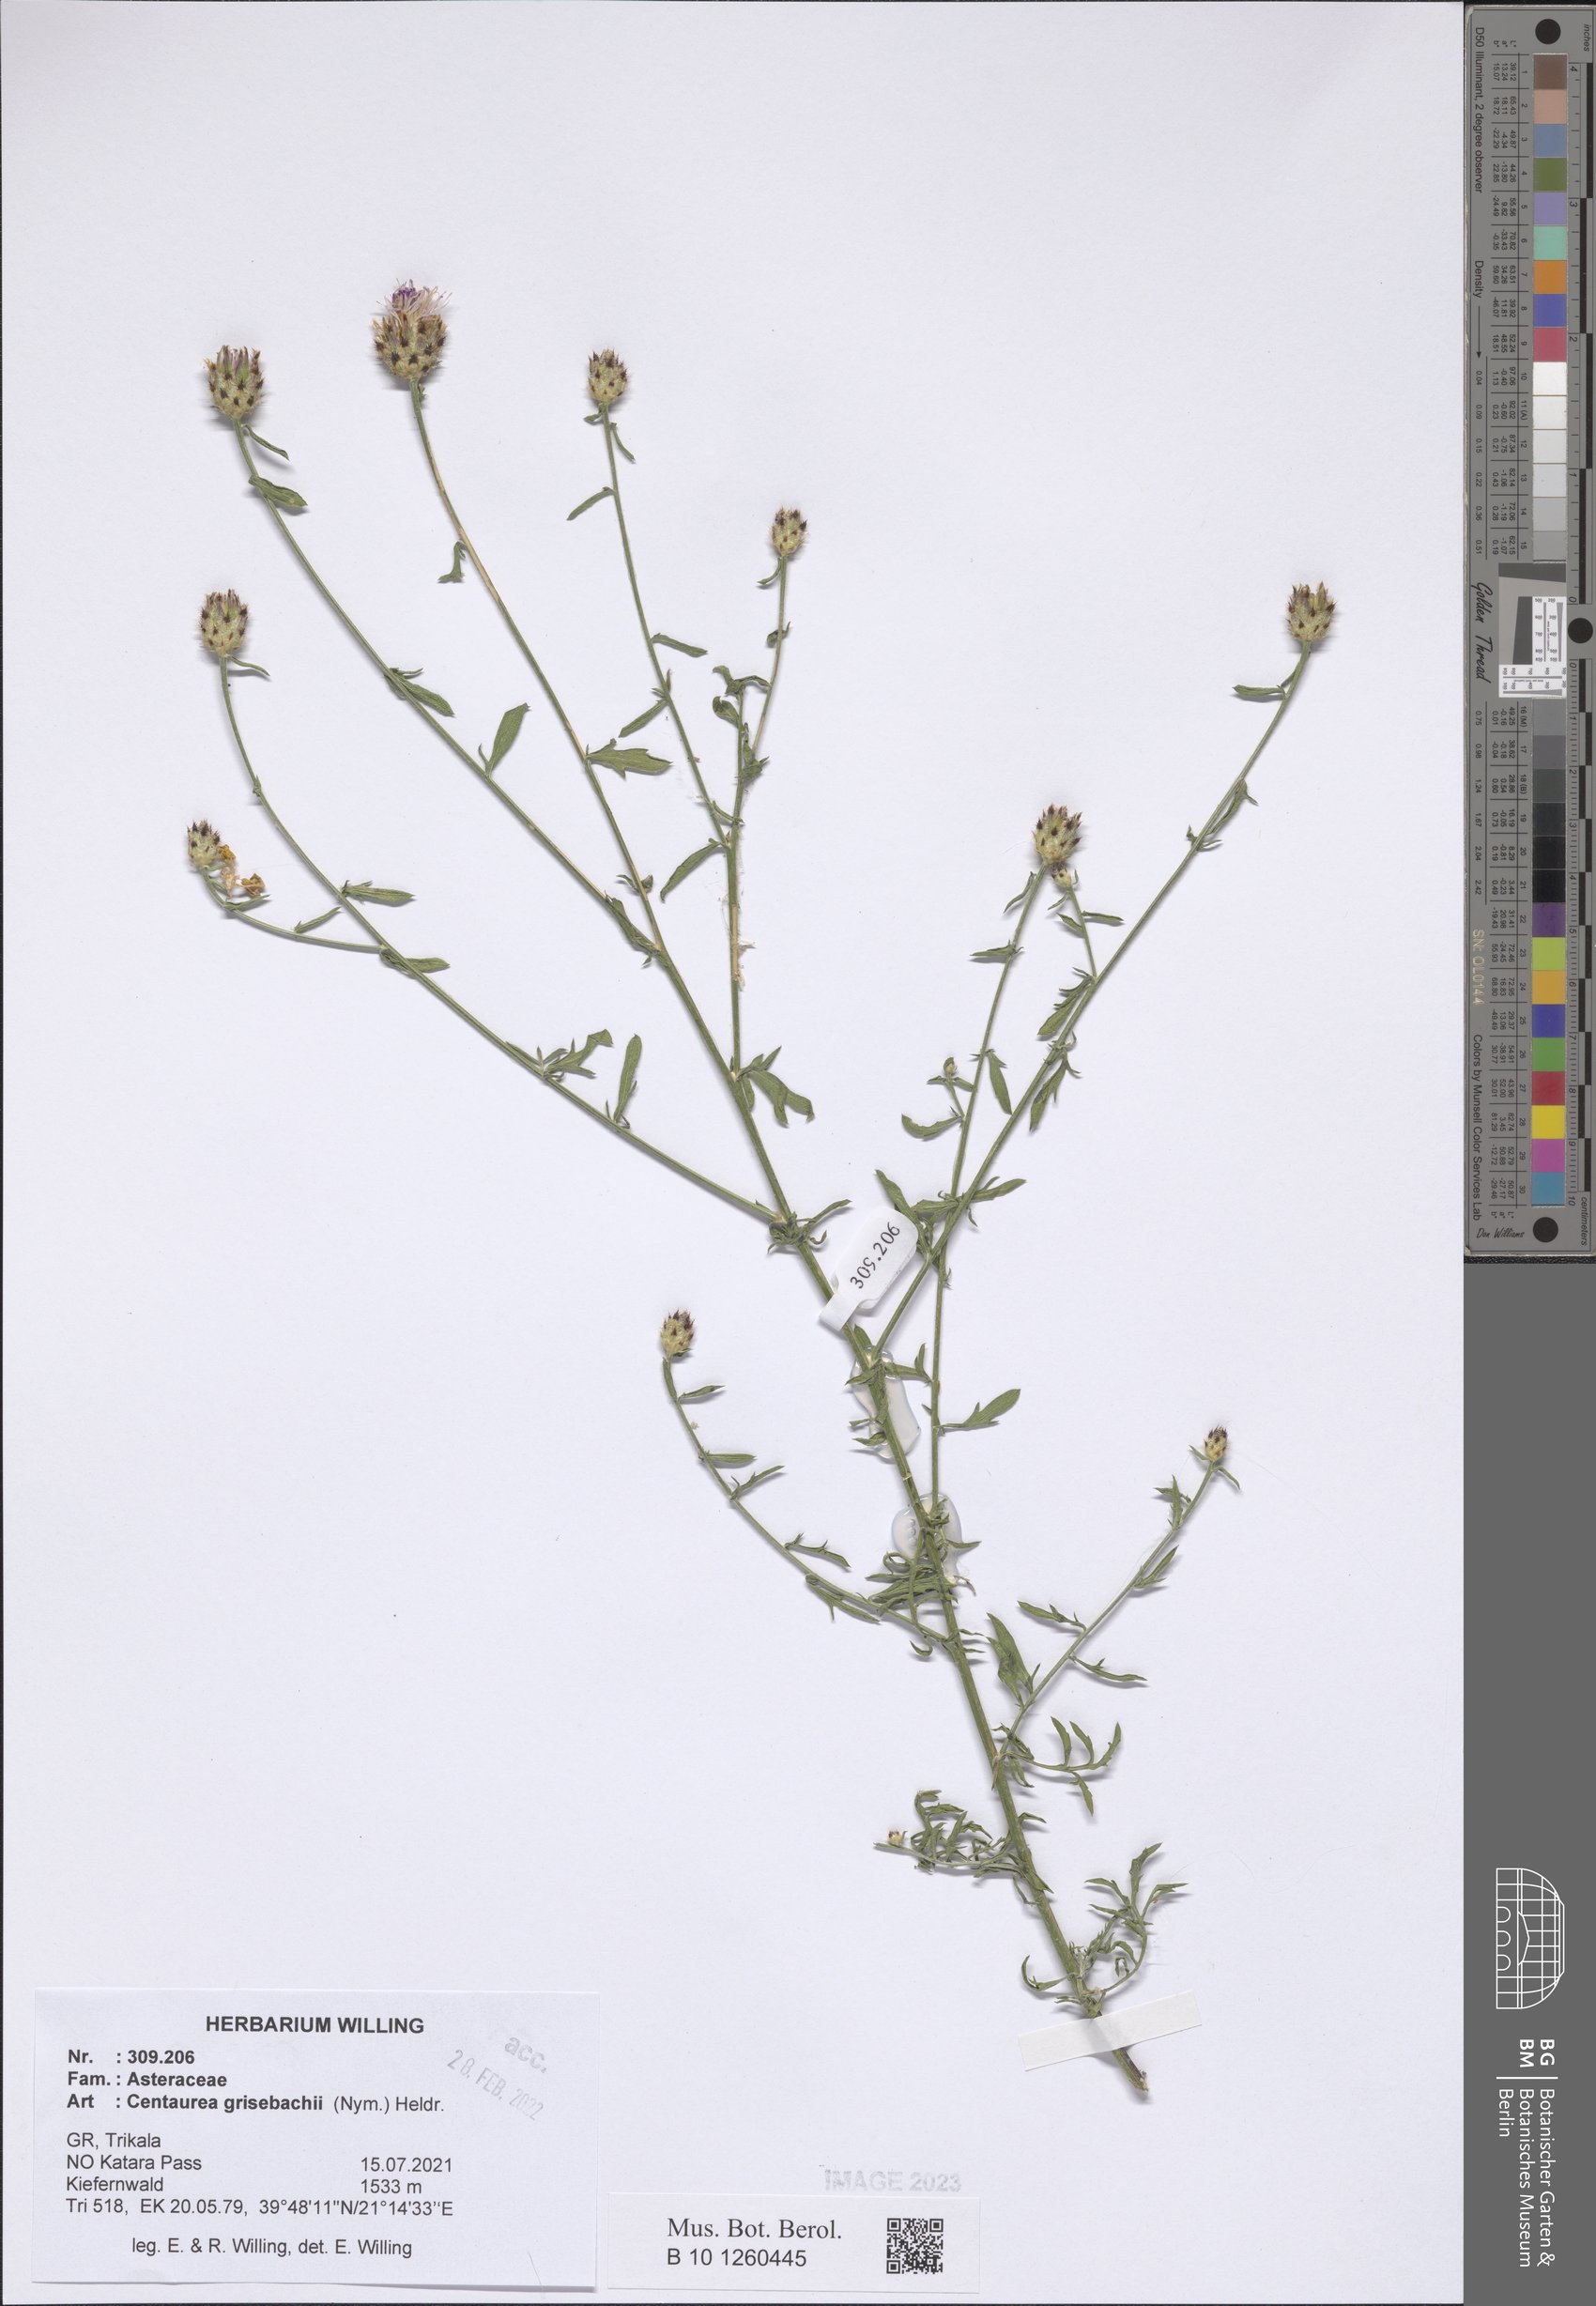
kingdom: Plantae
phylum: Tracheophyta
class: Magnoliopsida
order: Asterales
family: Asteraceae
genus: Centaurea
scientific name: Centaurea grisebachii
